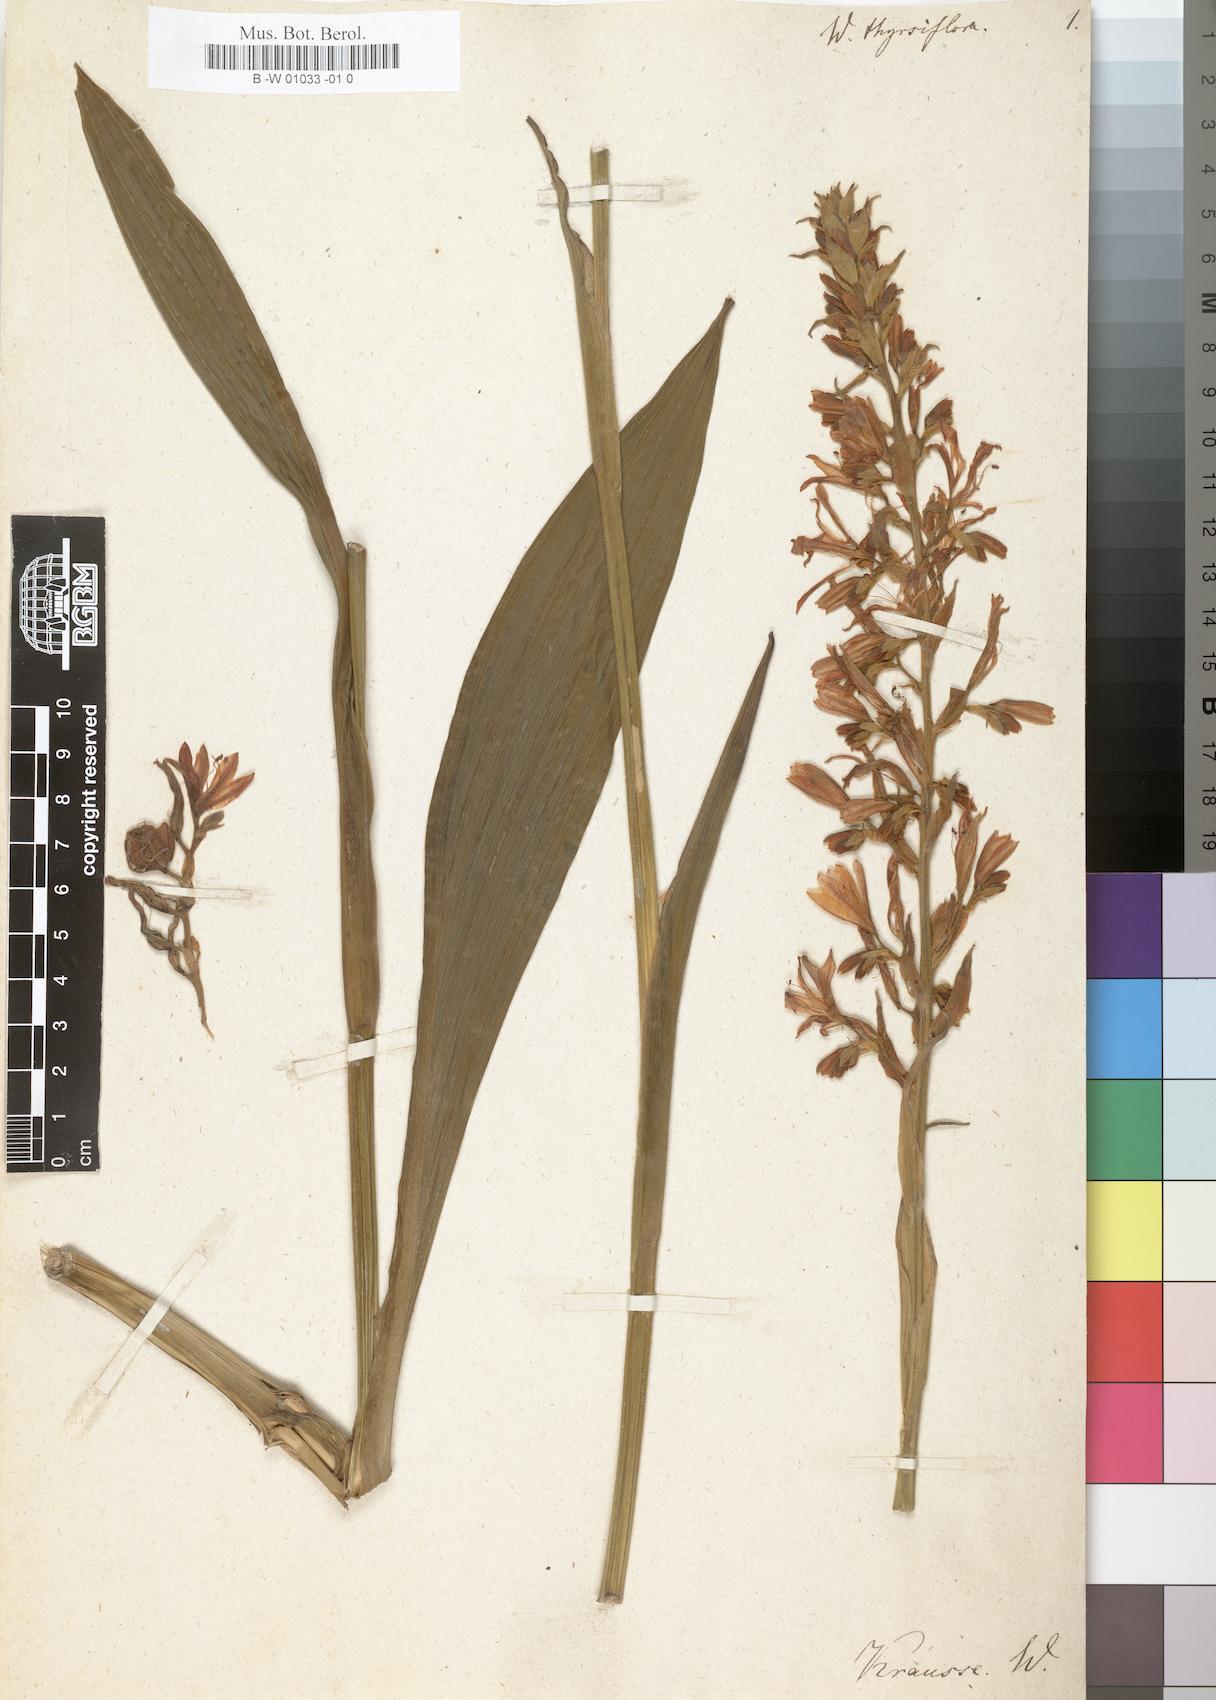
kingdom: Plantae
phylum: Tracheophyta
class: Liliopsida
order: Commelinales
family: Haemodoraceae
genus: Wachendorfia
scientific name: Wachendorfia thyrsiflora
